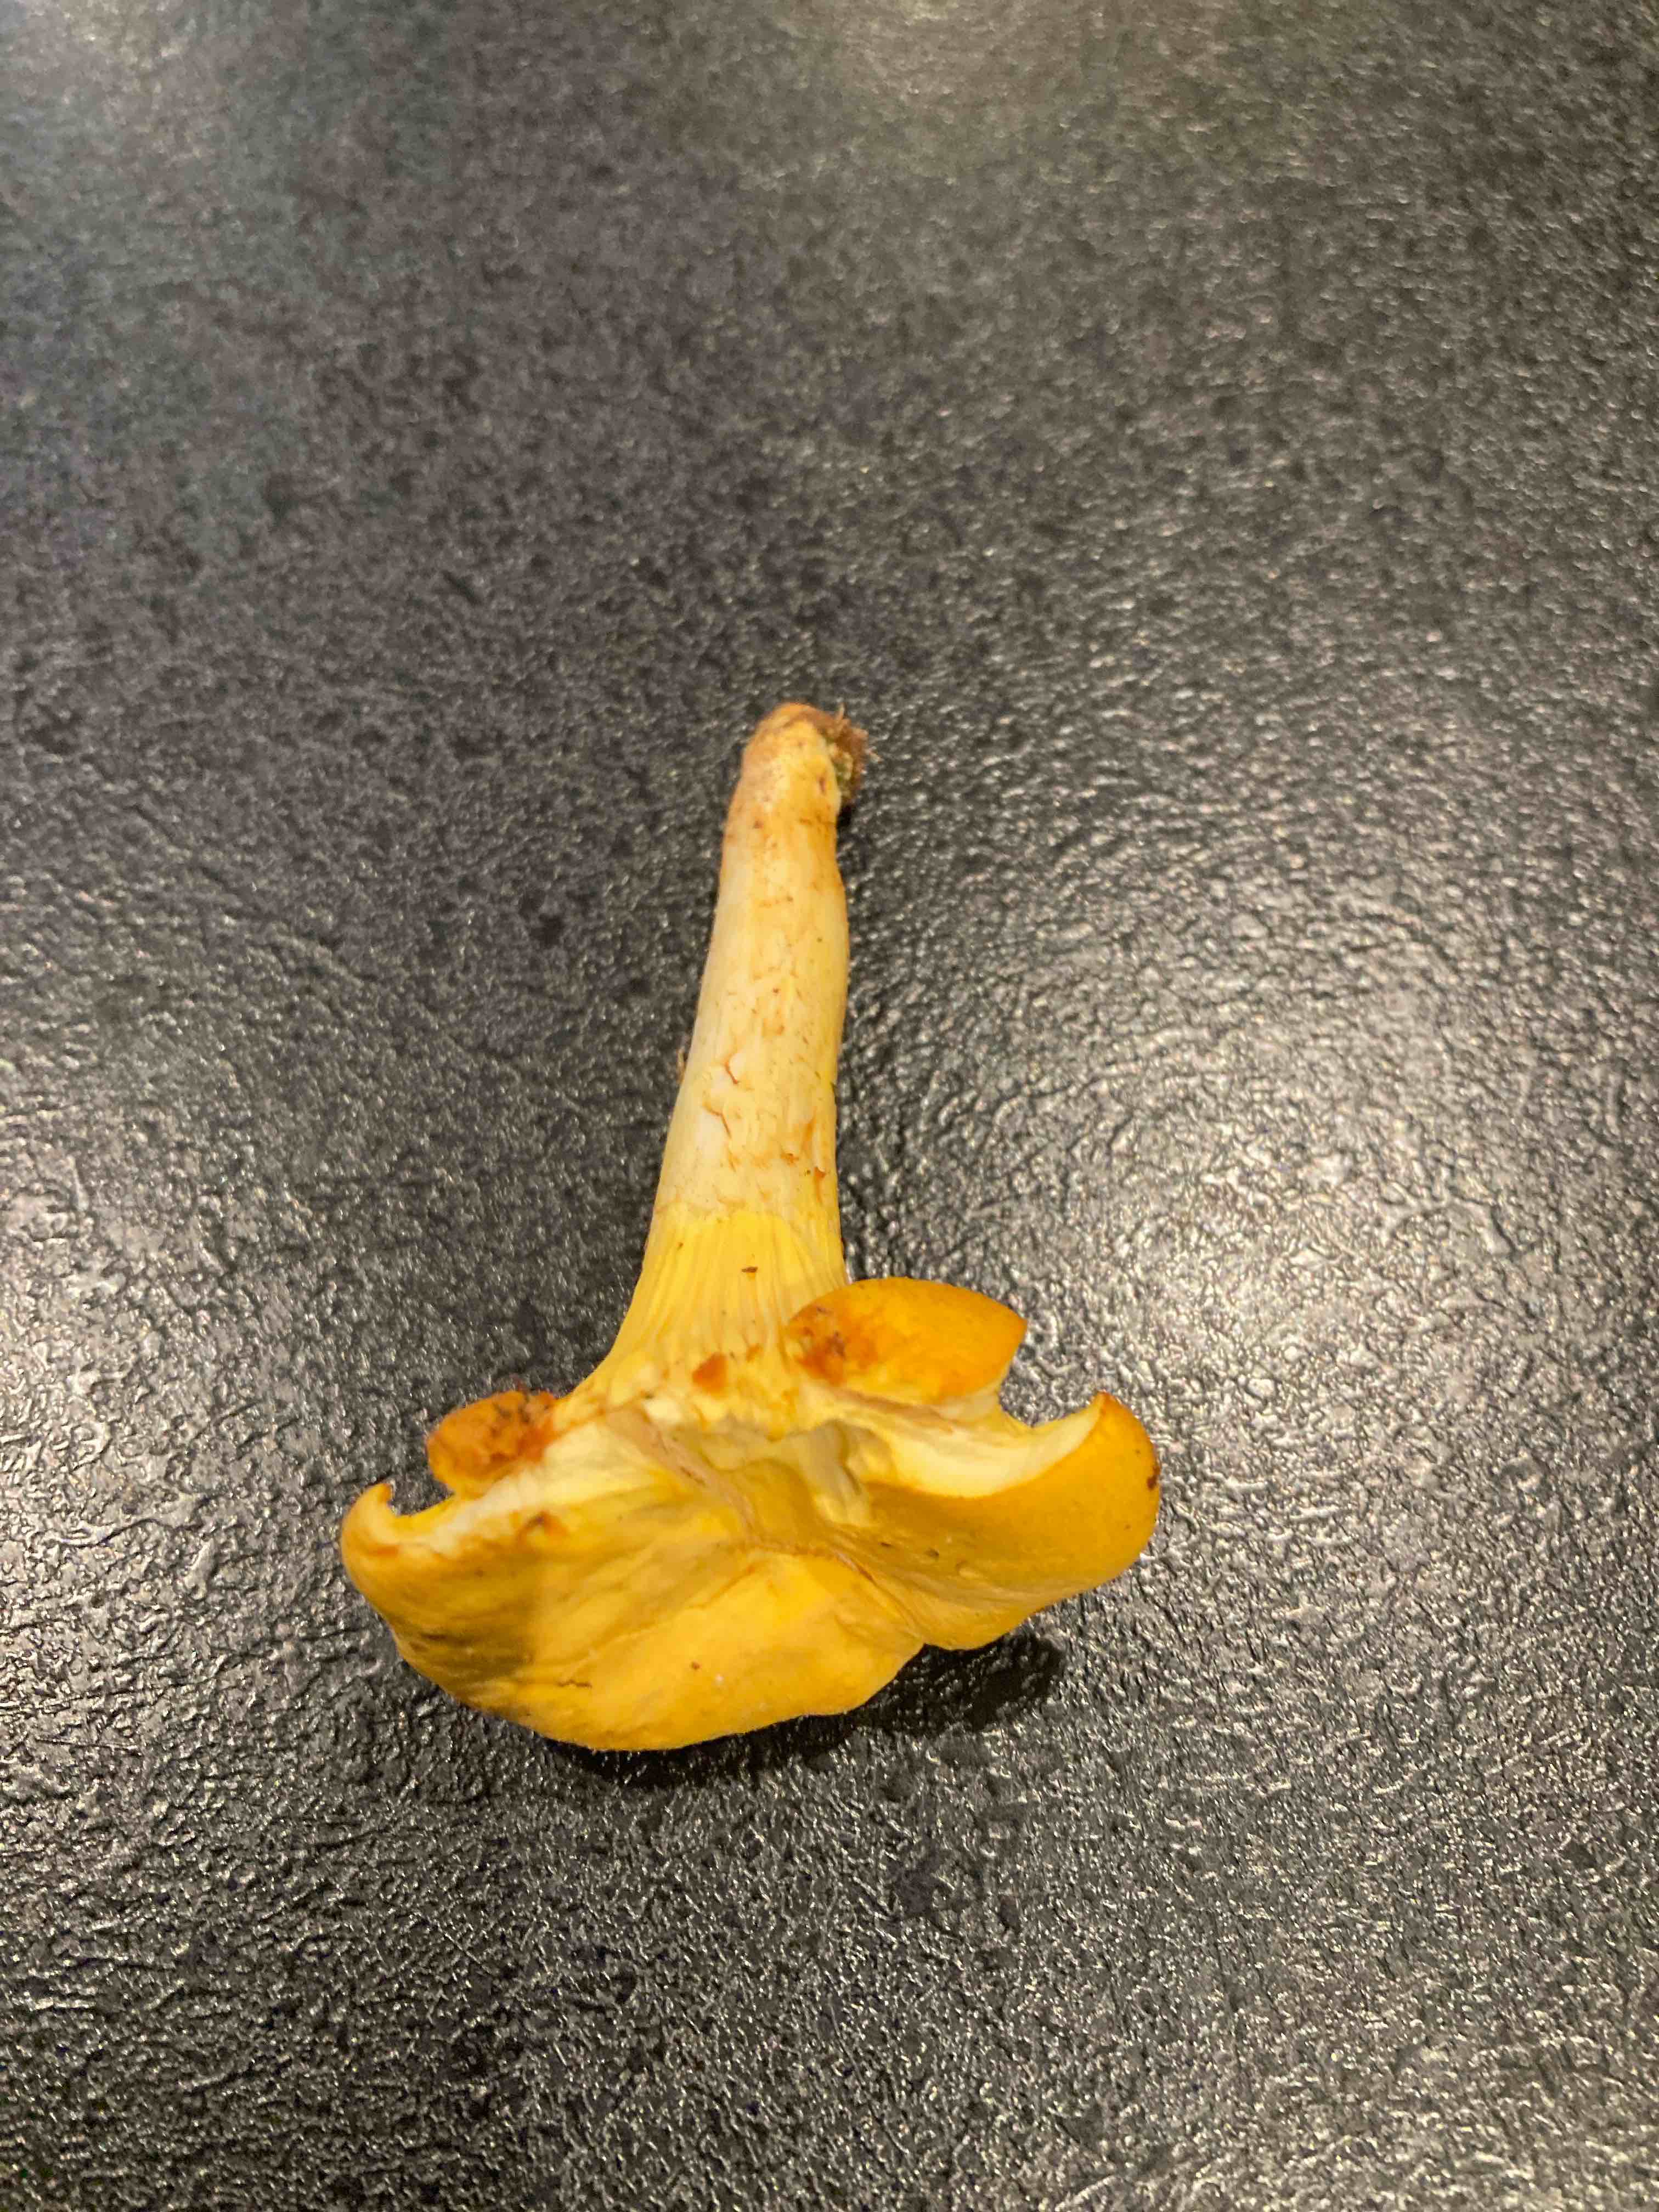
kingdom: Fungi
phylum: Basidiomycota
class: Agaricomycetes
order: Cantharellales
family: Hydnaceae
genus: Cantharellus
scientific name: Cantharellus cibarius
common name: almindelig kantarel
